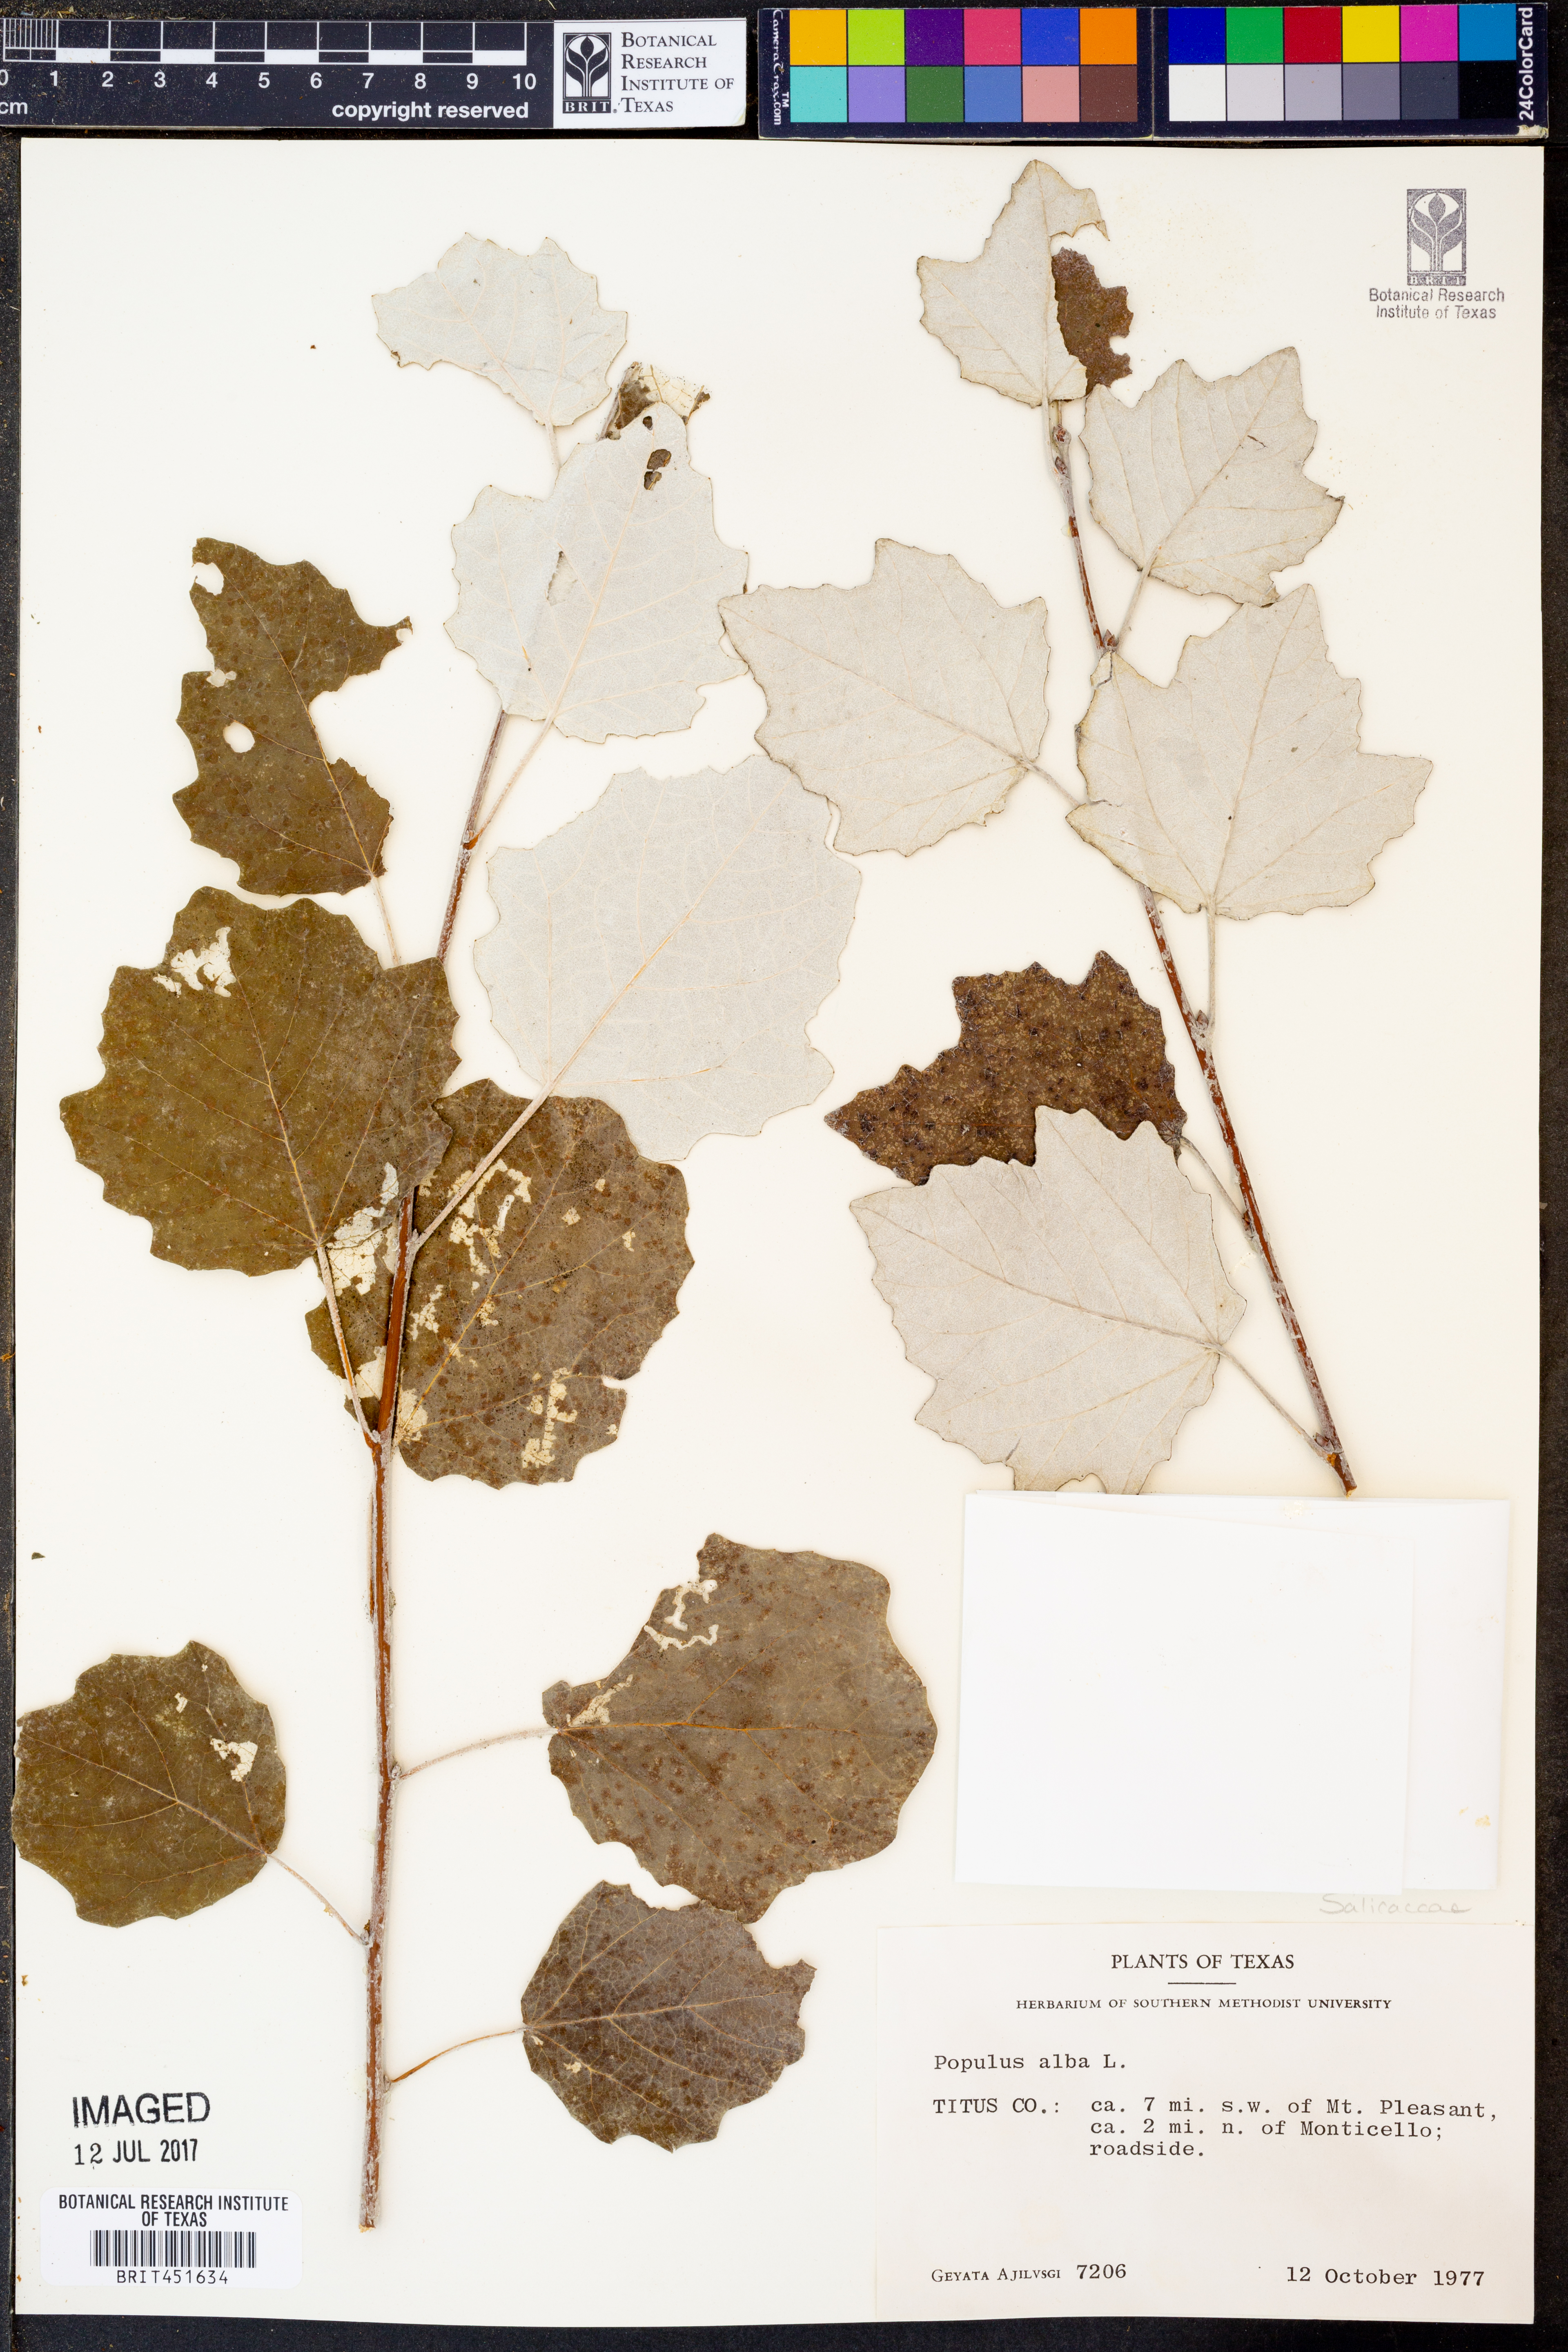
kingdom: Plantae
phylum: Tracheophyta
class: Magnoliopsida
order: Malpighiales
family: Salicaceae
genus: Populus
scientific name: Populus alba
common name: White poplar
